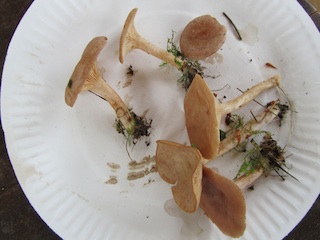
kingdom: Fungi
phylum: Basidiomycota
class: Agaricomycetes
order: Russulales
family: Russulaceae
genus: Lactarius
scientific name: Lactarius glyciosmus
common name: kokos-mælkehat
